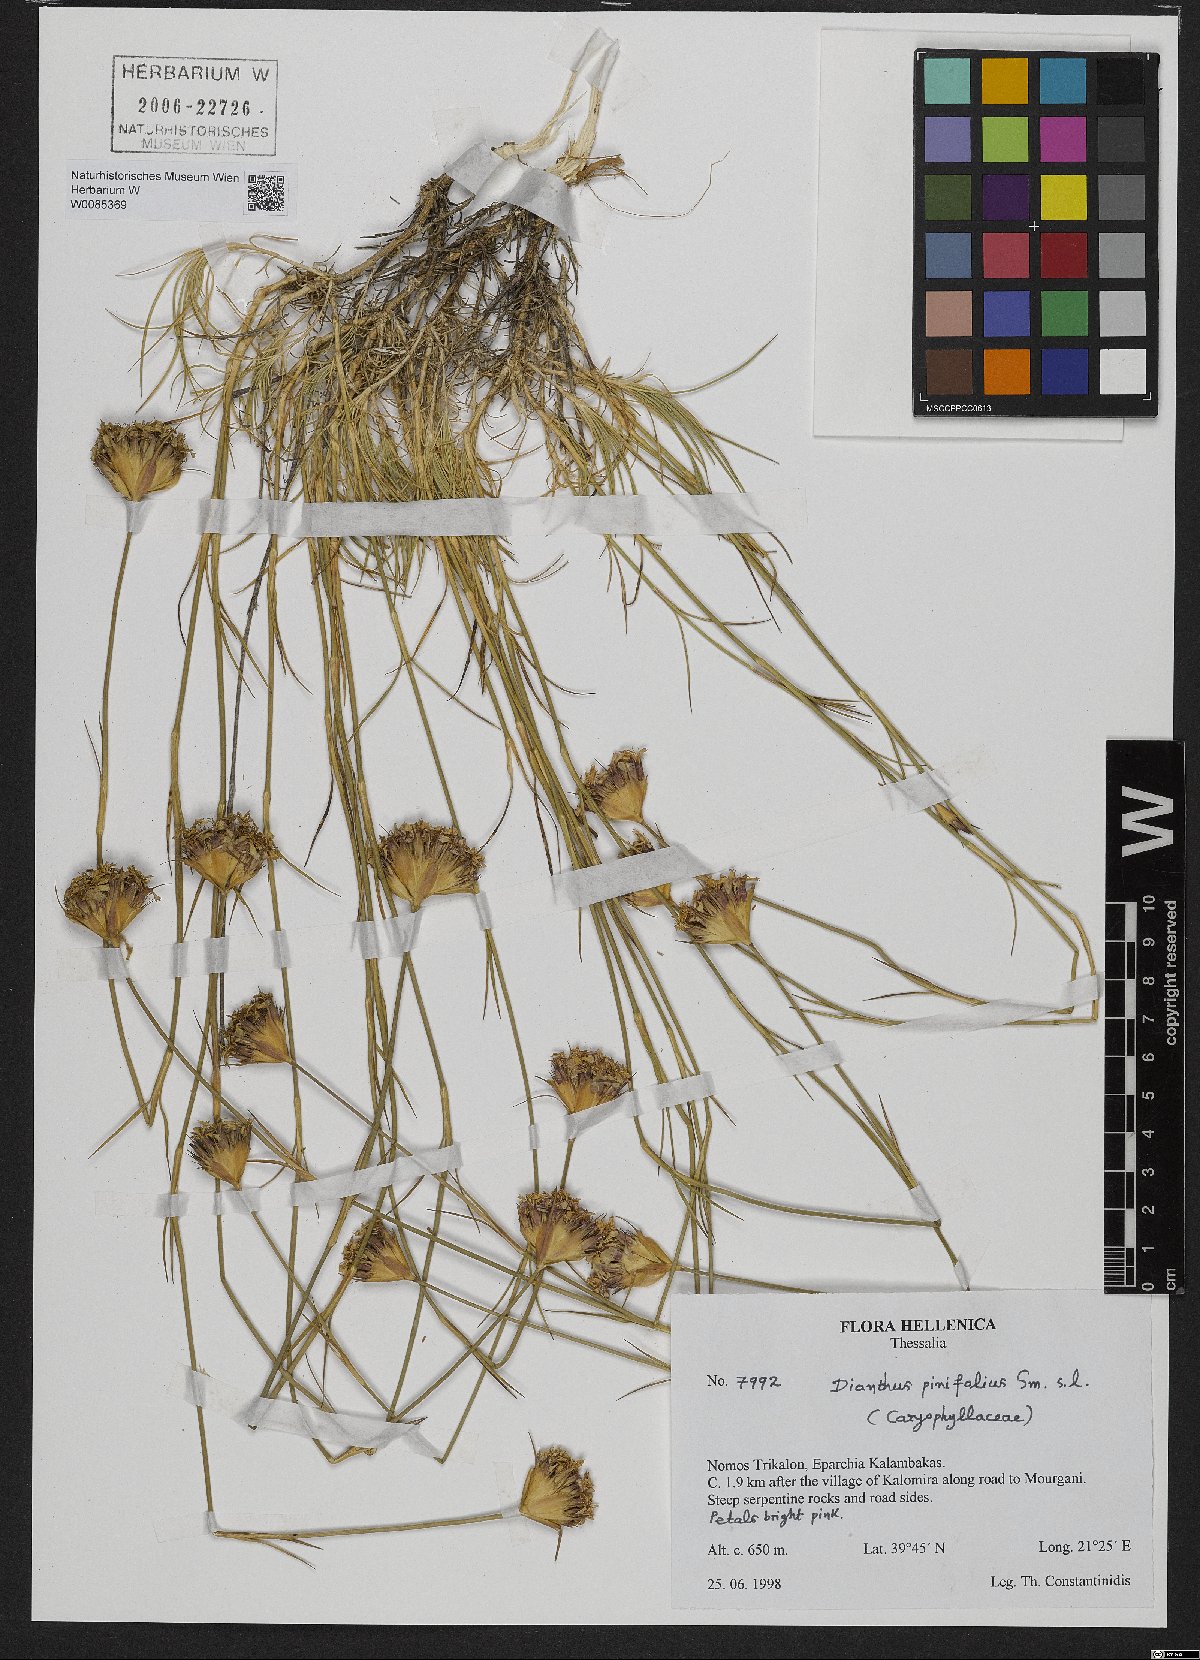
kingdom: Plantae
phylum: Tracheophyta
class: Magnoliopsida
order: Caryophyllales
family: Caryophyllaceae
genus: Dianthus
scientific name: Dianthus pinifolius
